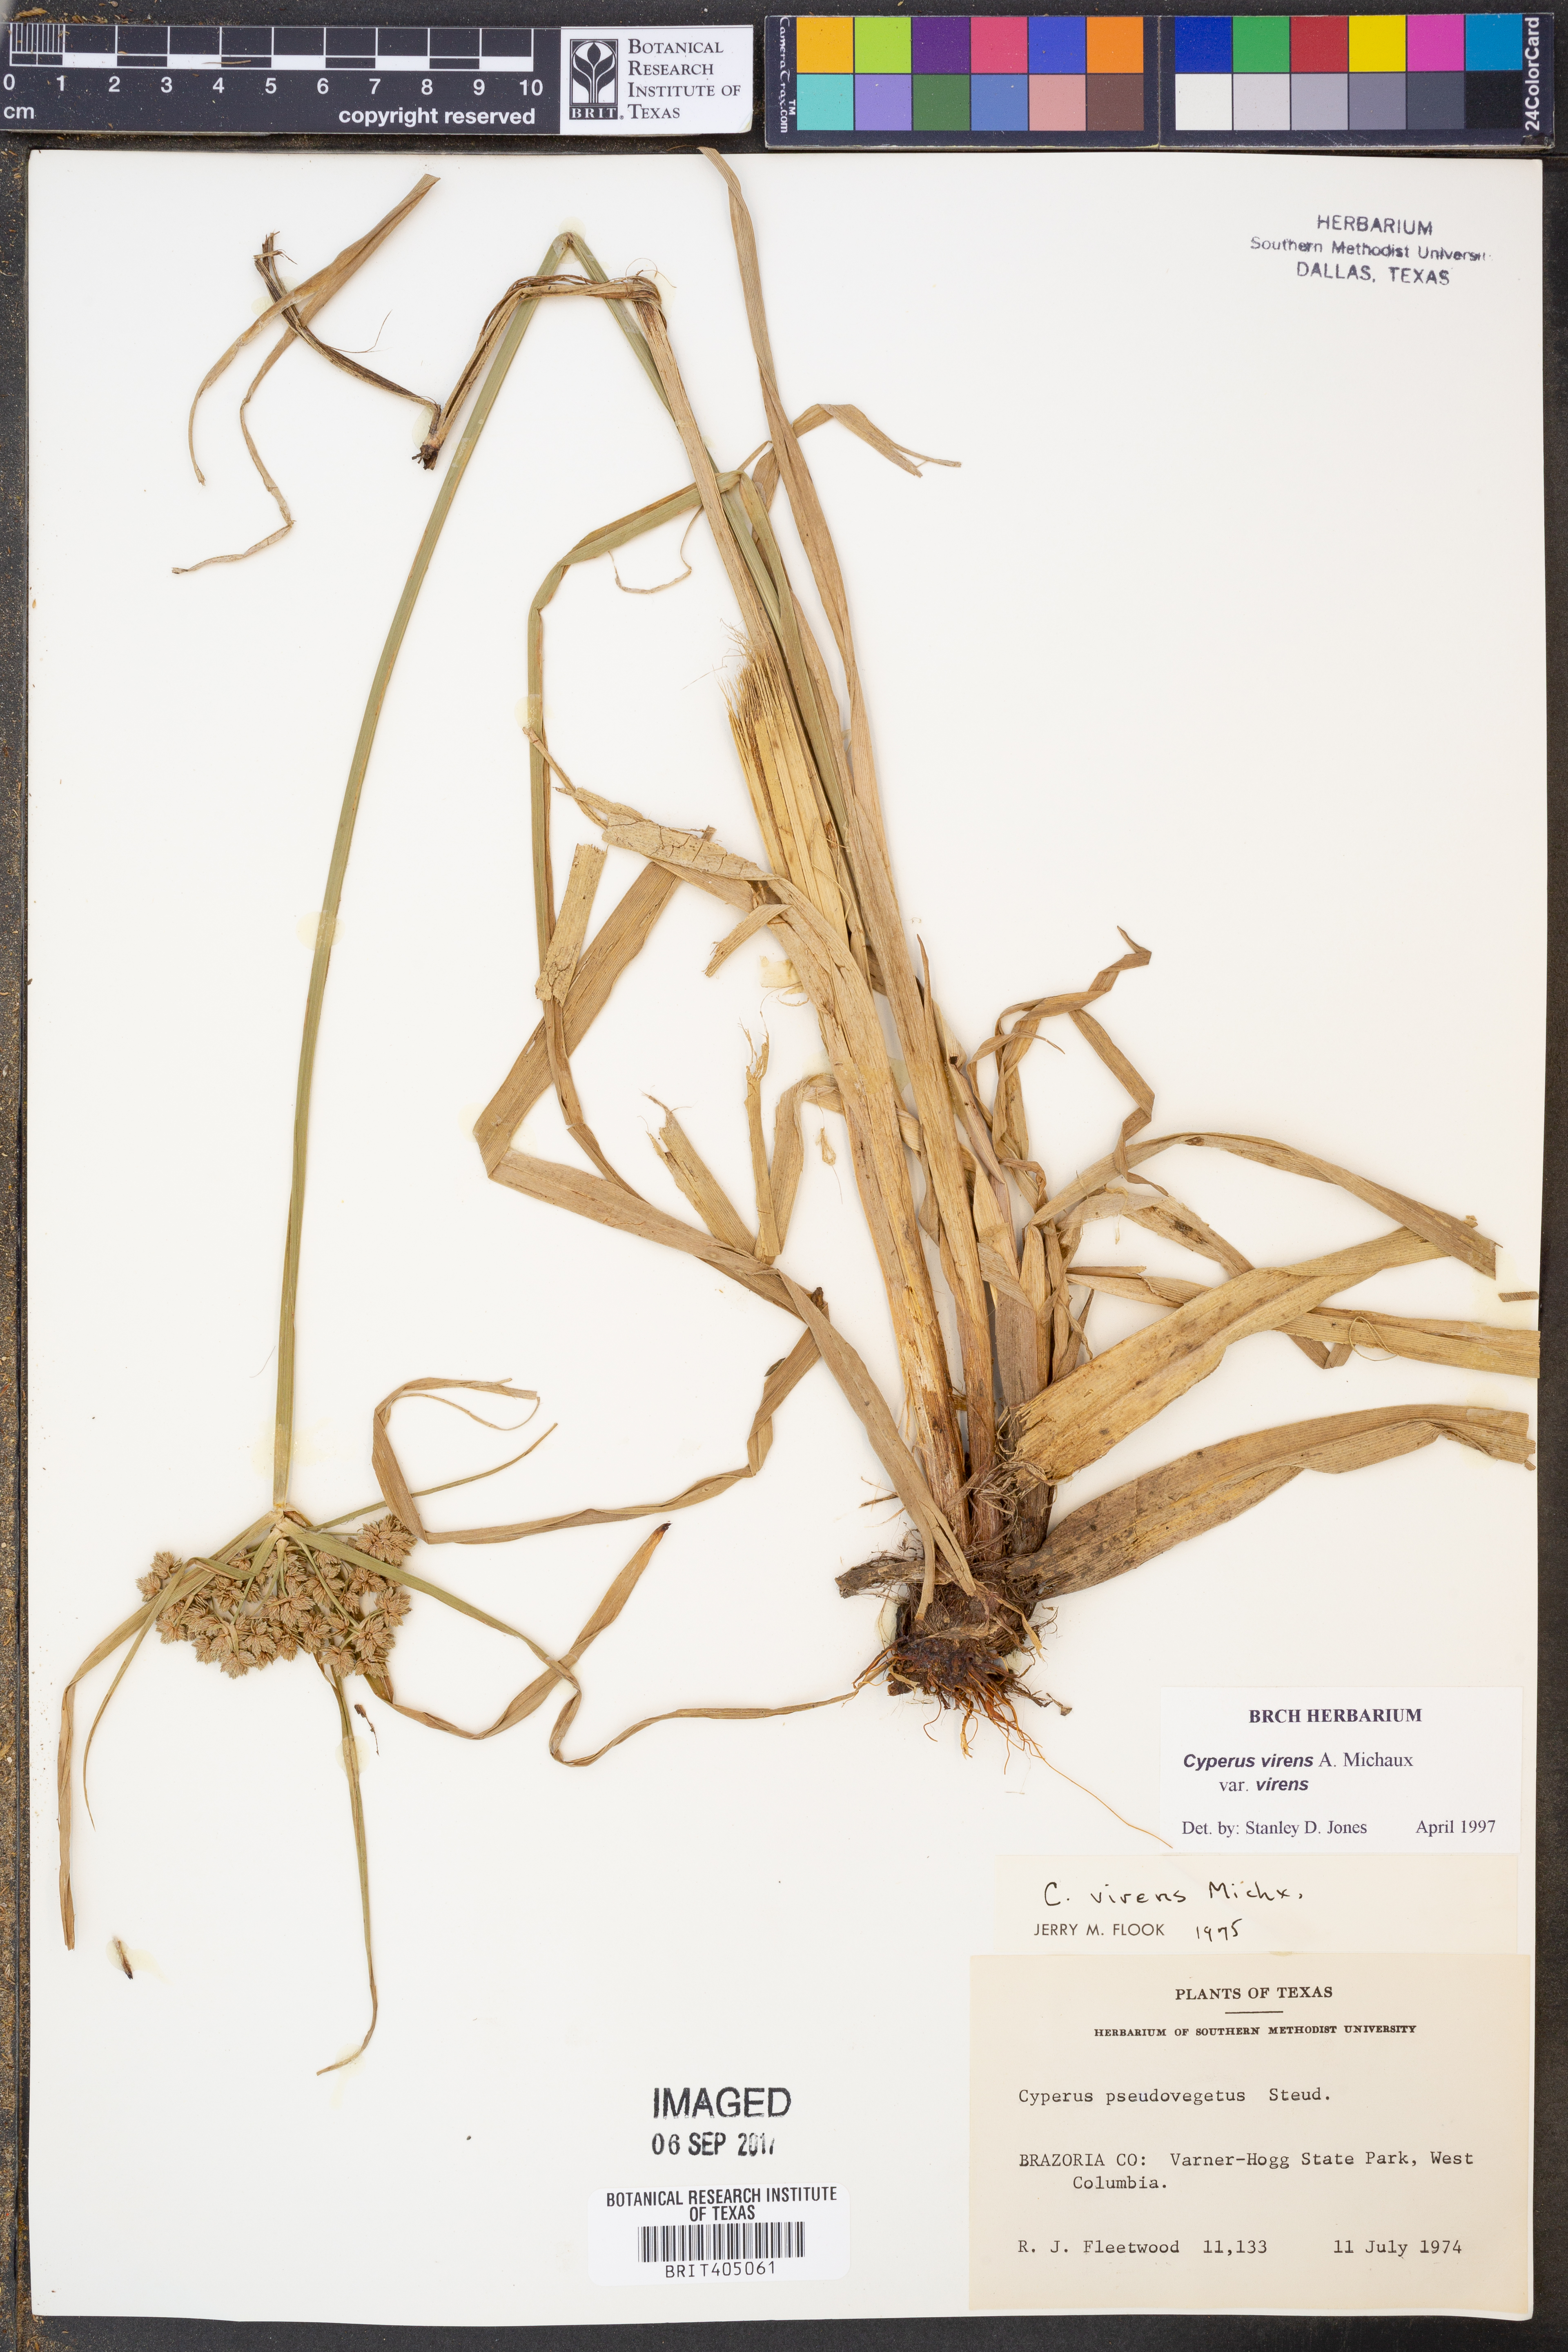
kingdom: Plantae
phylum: Tracheophyta
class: Liliopsida
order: Poales
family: Cyperaceae
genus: Cyperus
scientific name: Cyperus virens
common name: Green flatsedge
